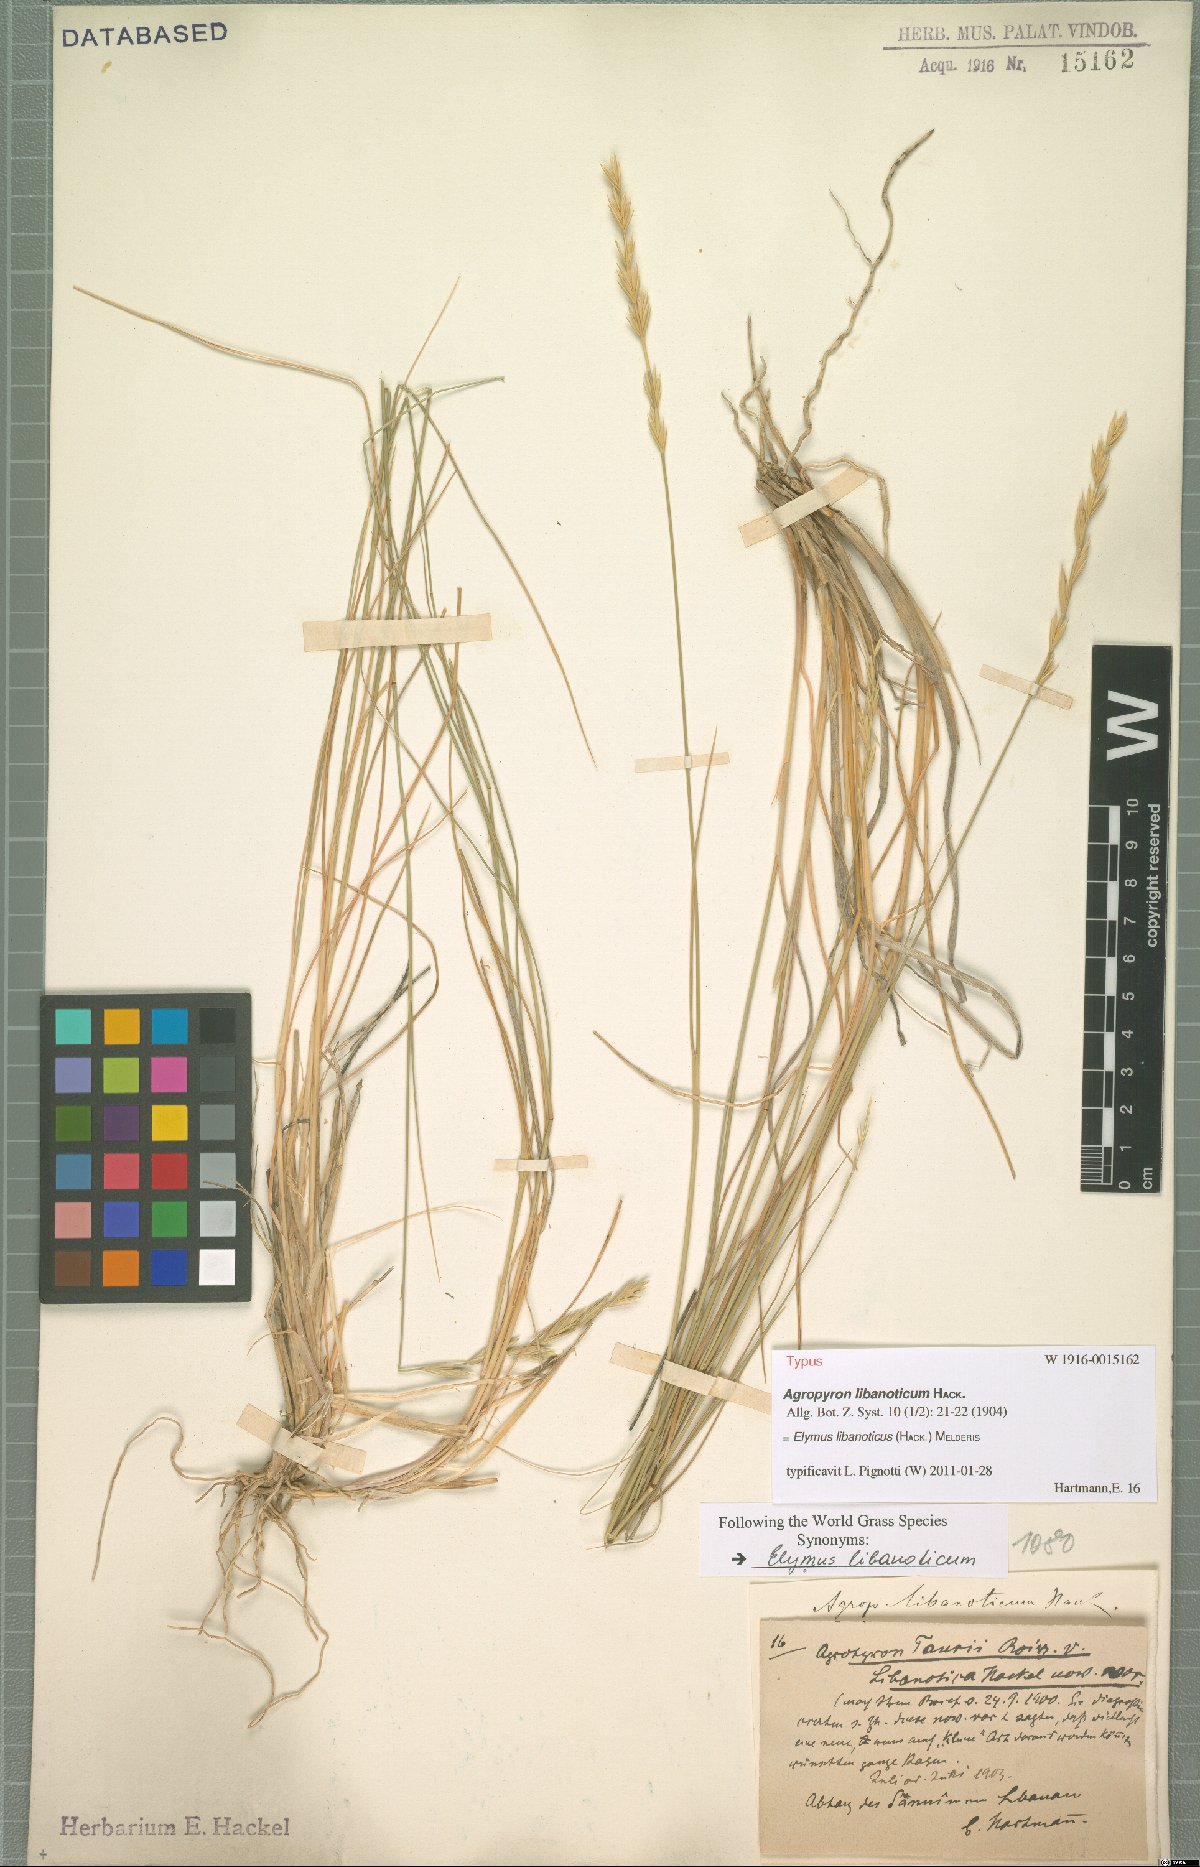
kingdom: Plantae
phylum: Tracheophyta
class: Liliopsida
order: Poales
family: Poaceae
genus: Pseudoroegneria
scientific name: Pseudoroegneria libanotica
